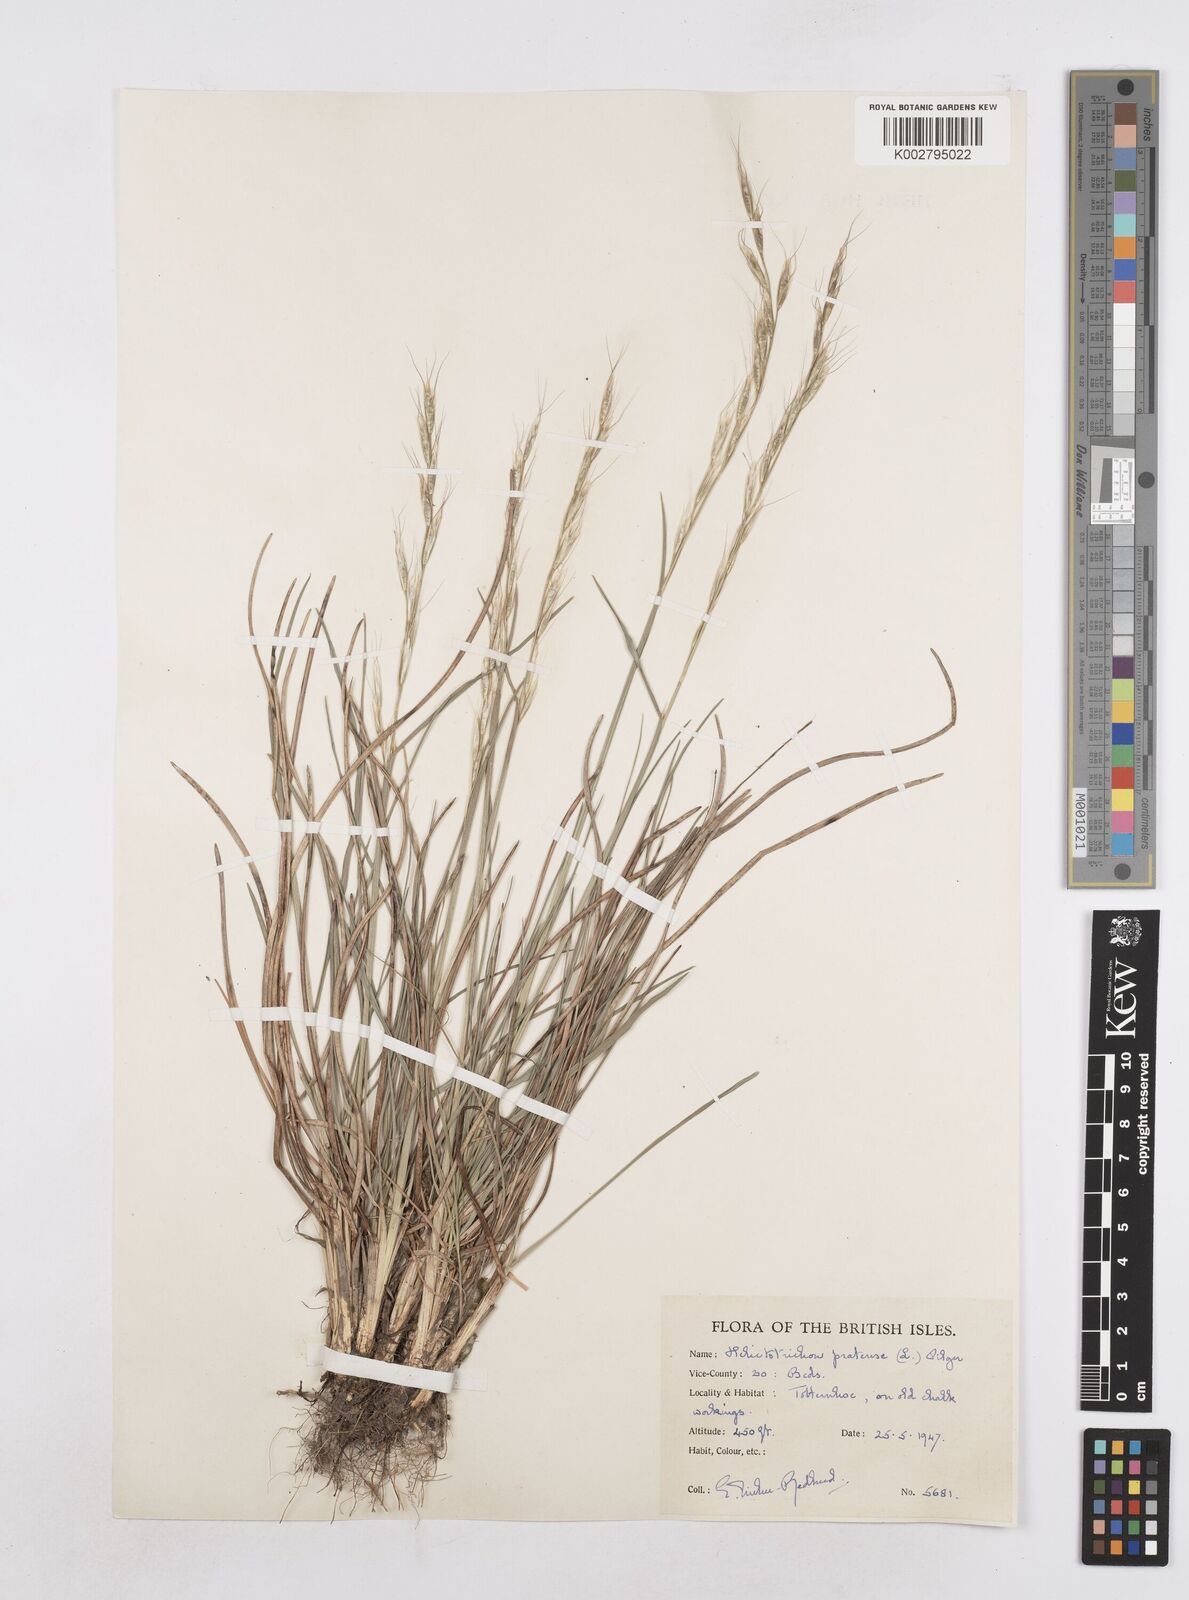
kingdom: Plantae
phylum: Tracheophyta
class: Liliopsida
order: Poales
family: Poaceae
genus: Helictochloa
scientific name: Helictochloa pratensis
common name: Meadow oat grass
